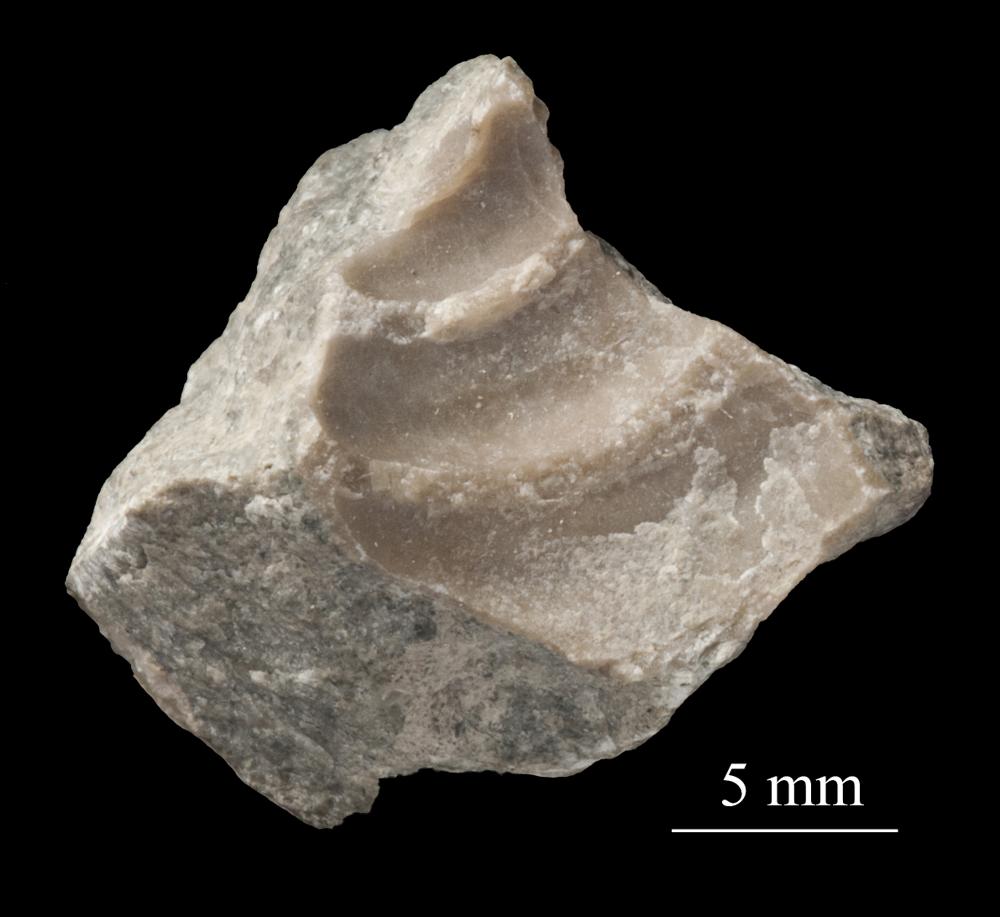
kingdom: Animalia
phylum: Mollusca
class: Gastropoda
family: Lophospiridae
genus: Proturritella
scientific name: Proturritella Turbinites bicarinatus
